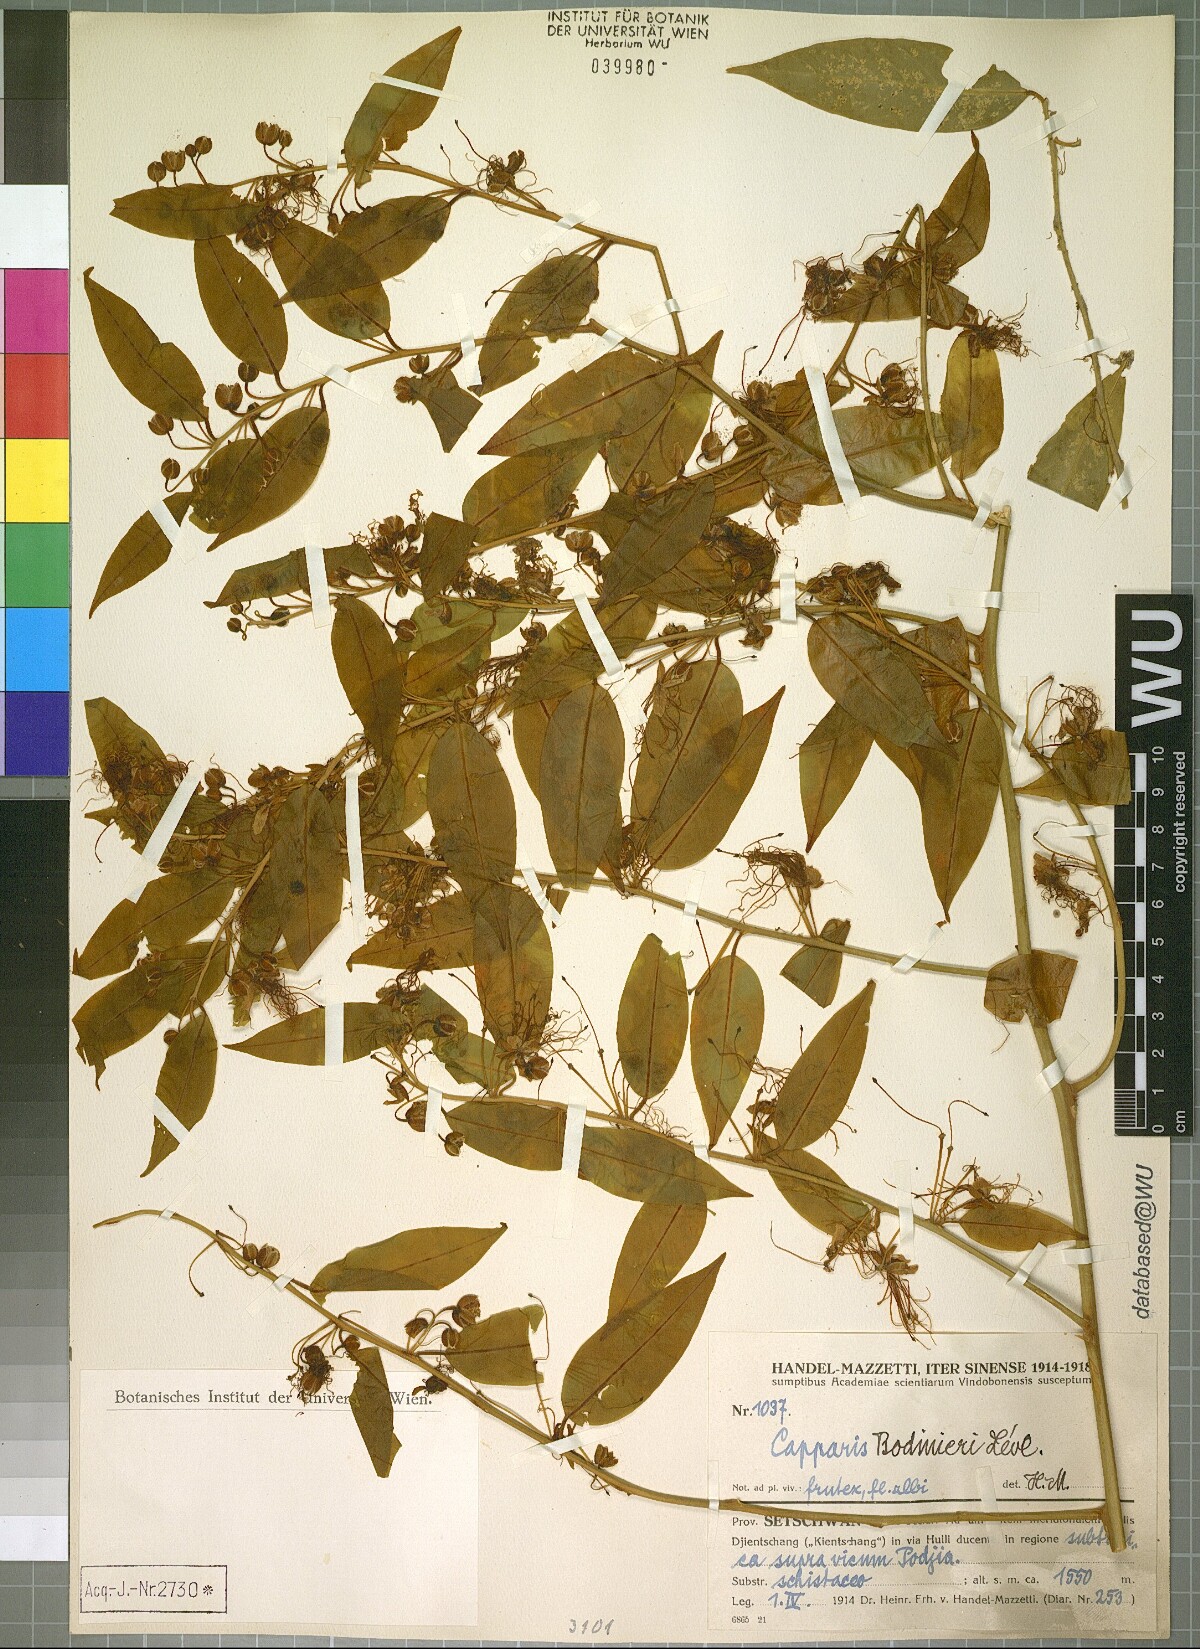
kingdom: Plantae
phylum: Tracheophyta
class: Magnoliopsida
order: Brassicales
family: Capparaceae
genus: Capparis
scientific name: Capparis bodinieri
